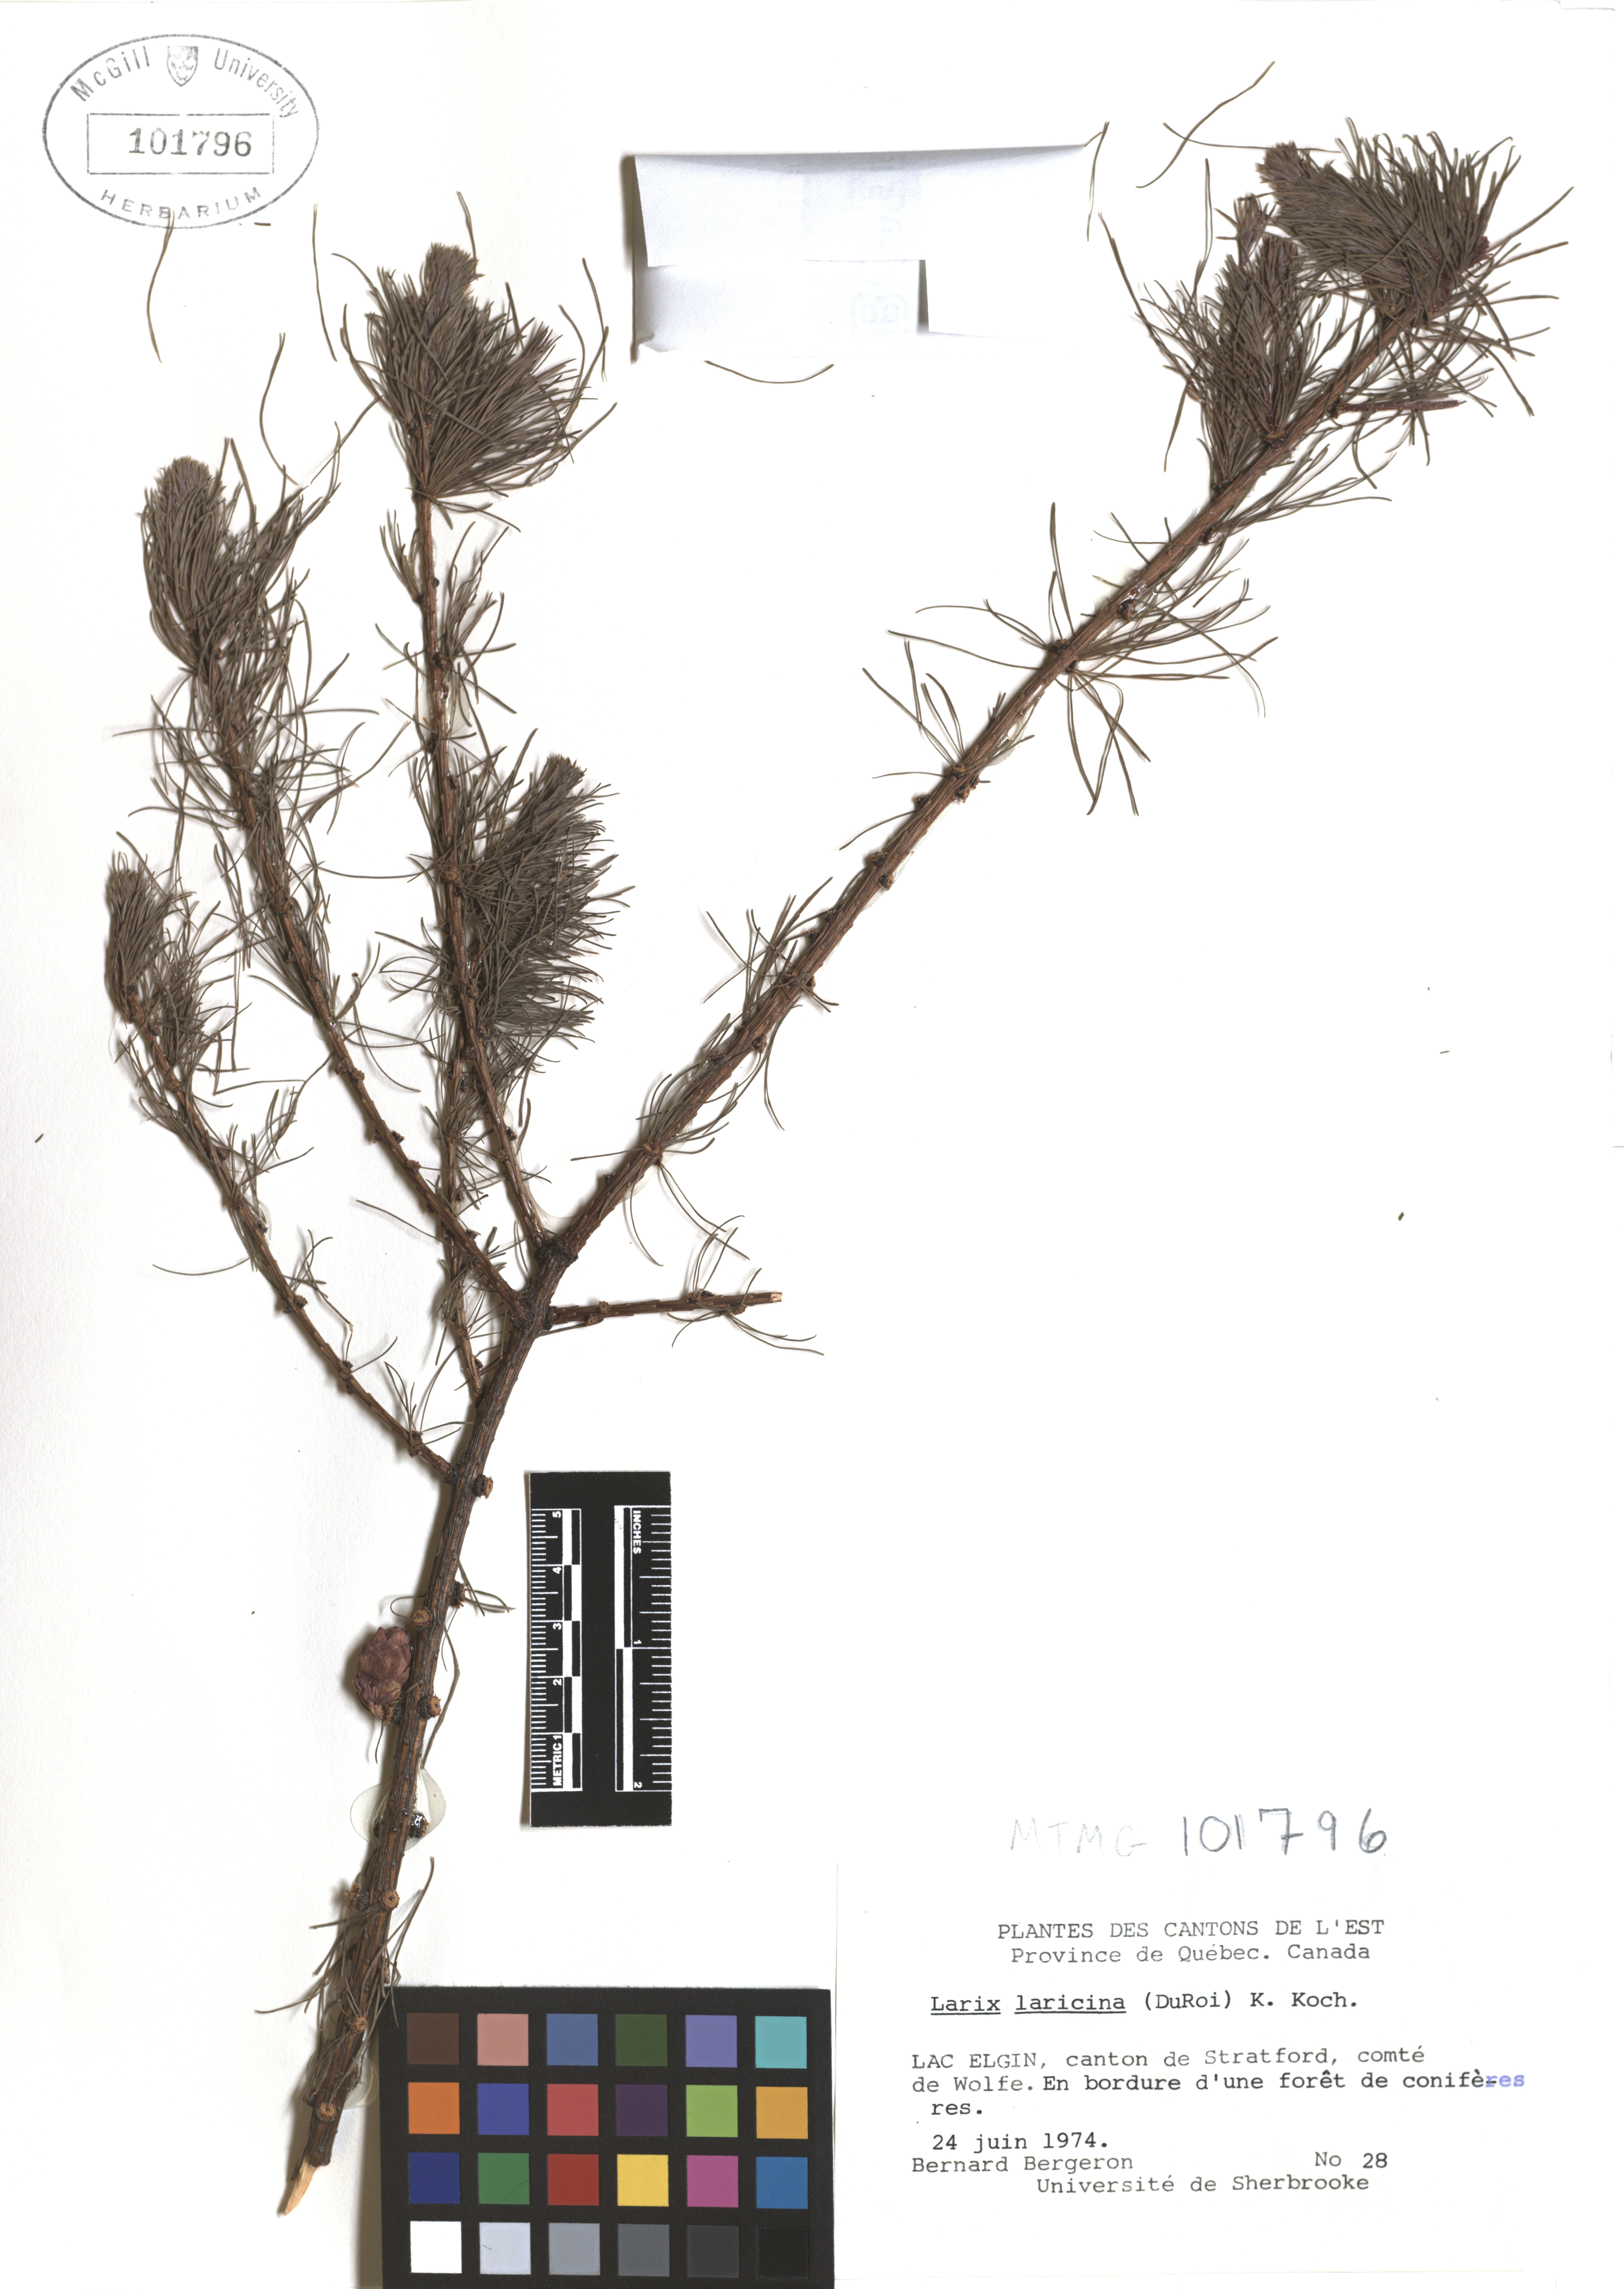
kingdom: Plantae
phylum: Tracheophyta
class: Pinopsida
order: Pinales
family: Pinaceae
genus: Larix
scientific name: Larix laricina
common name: American larch
